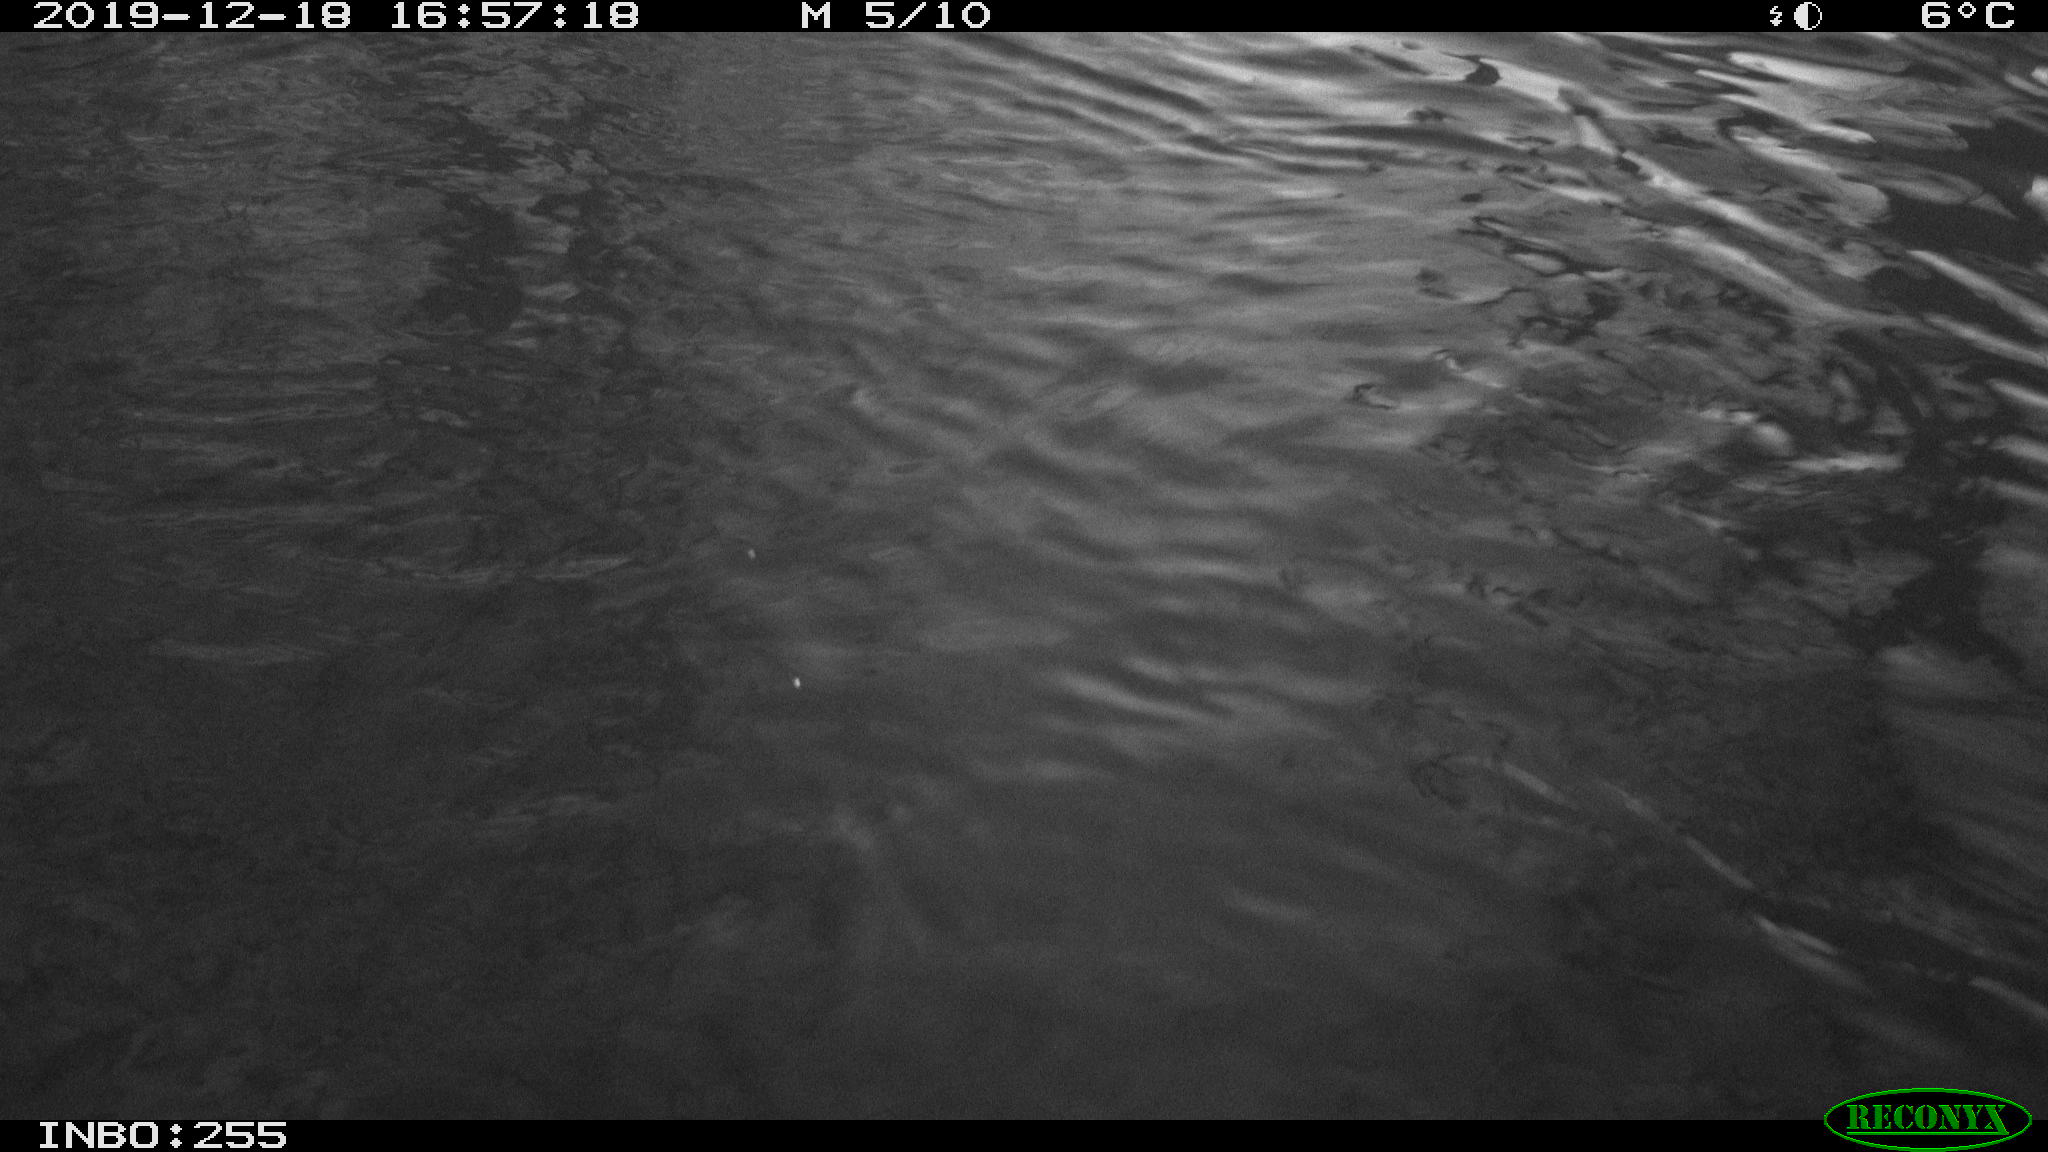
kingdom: Animalia
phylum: Chordata
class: Aves
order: Anseriformes
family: Anatidae
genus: Anas
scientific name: Anas platyrhynchos
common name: Mallard
